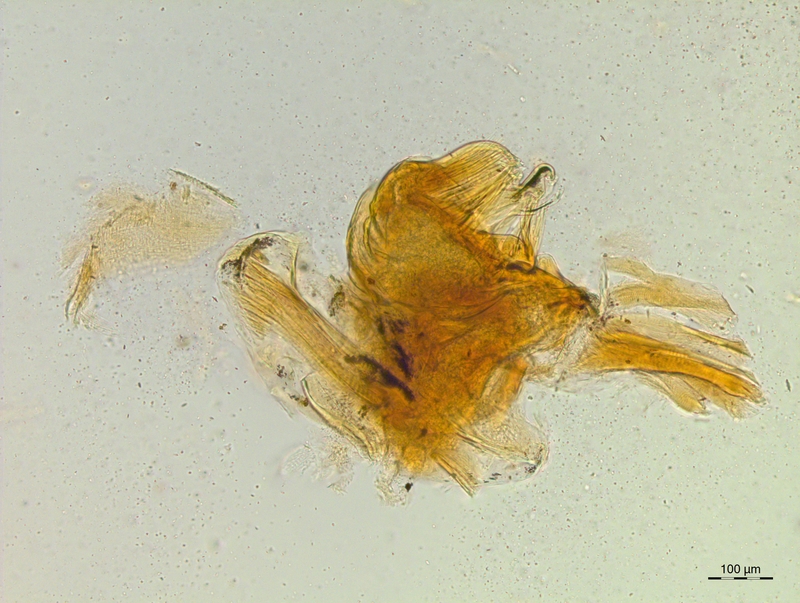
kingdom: Animalia
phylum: Arthropoda
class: Diplopoda
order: Chordeumatida
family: Craspedosomatidae
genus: Craspedosoma
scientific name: Craspedosoma rawlinsii
